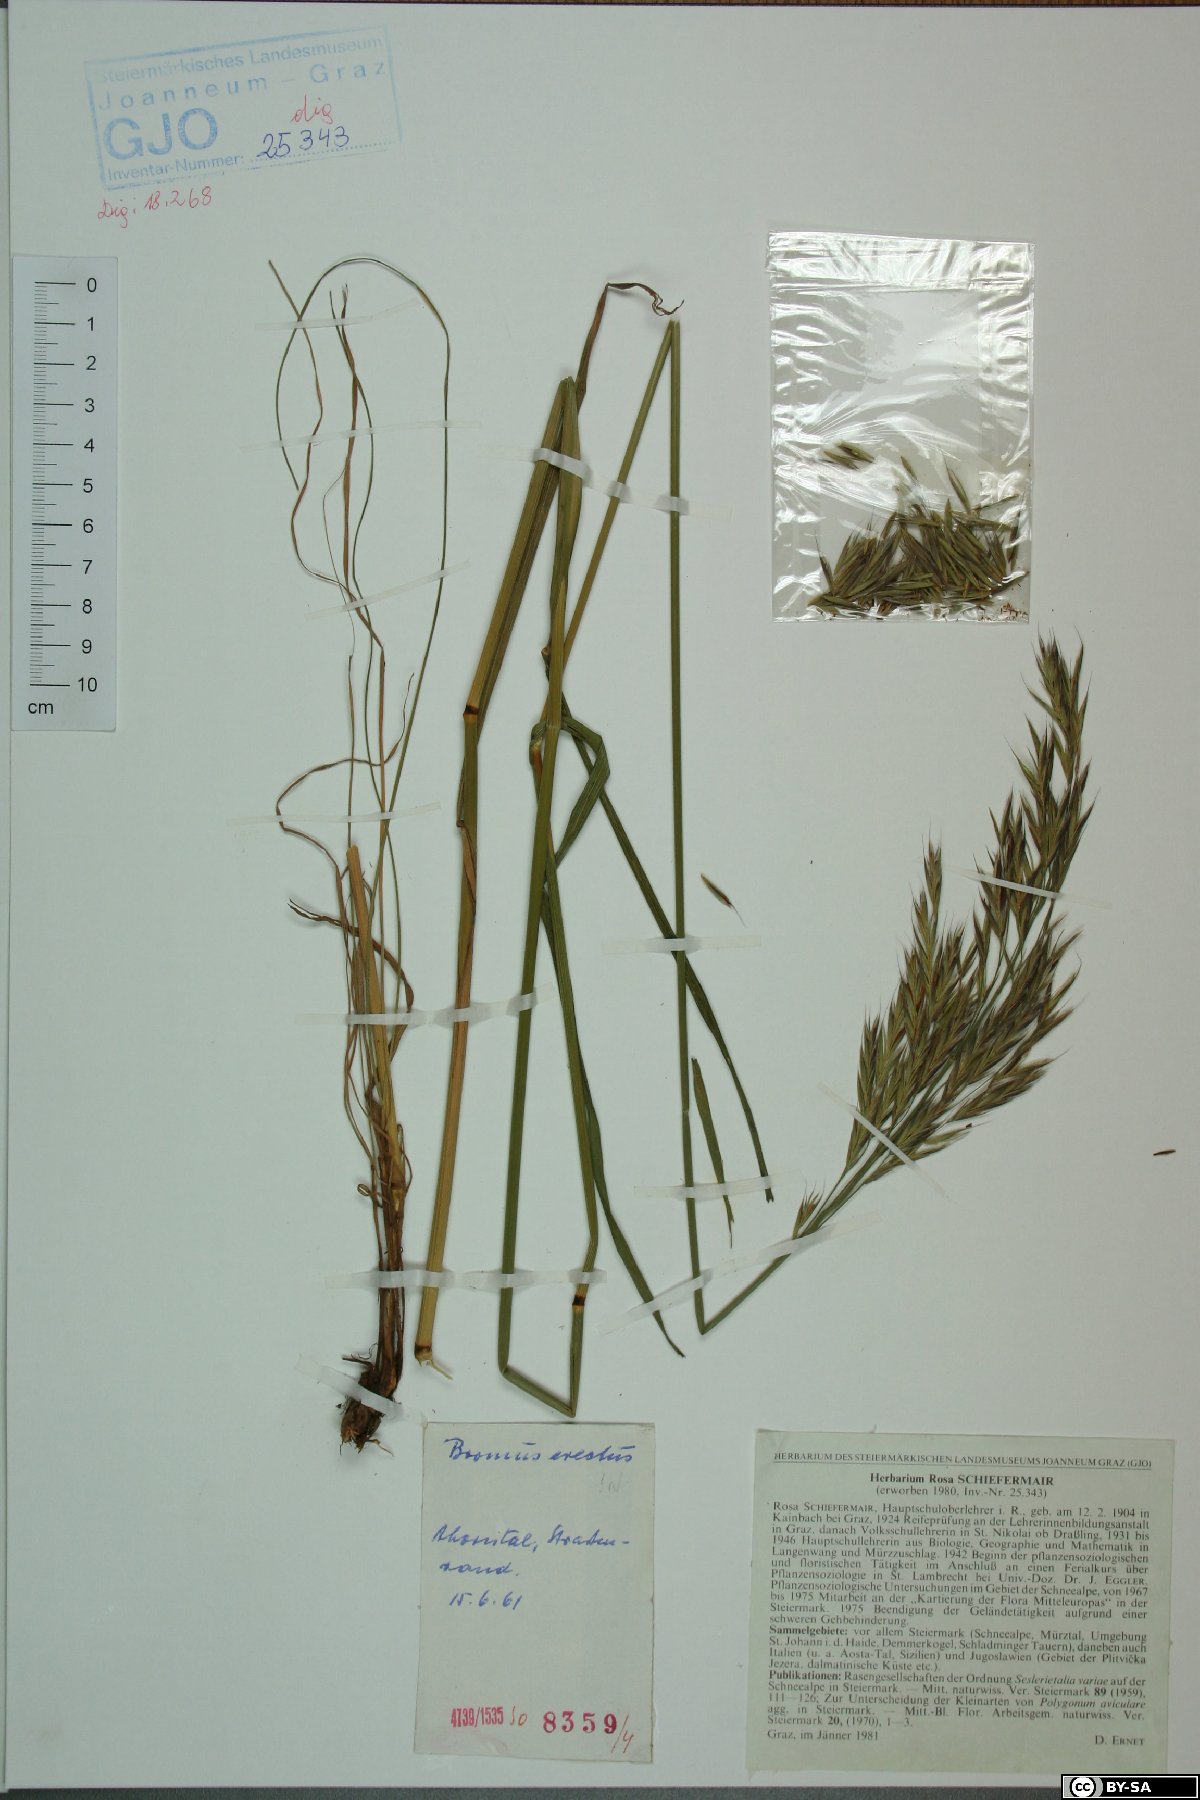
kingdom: Plantae
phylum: Tracheophyta
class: Liliopsida
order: Poales
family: Poaceae
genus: Bromus
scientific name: Bromus erectus
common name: Erect brome
